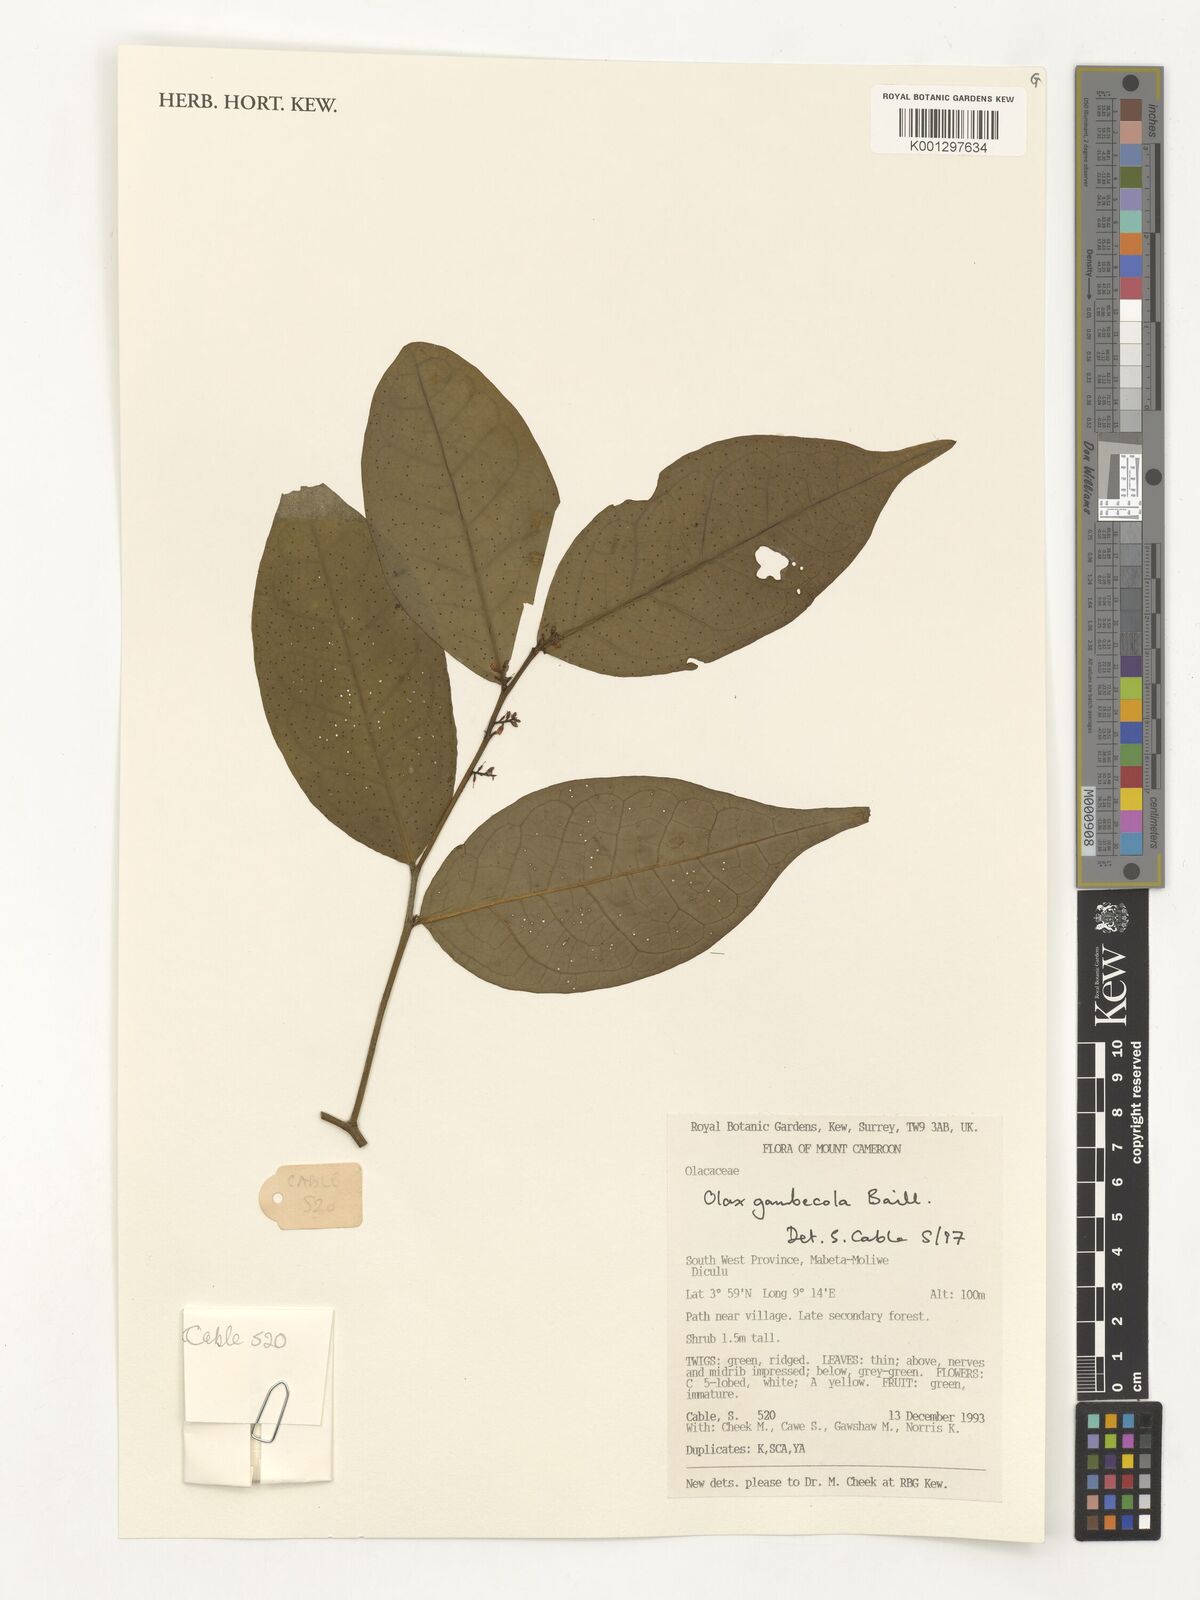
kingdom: Plantae
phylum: Tracheophyta
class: Magnoliopsida
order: Santalales
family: Olacaceae
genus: Olax
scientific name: Olax gambecola
